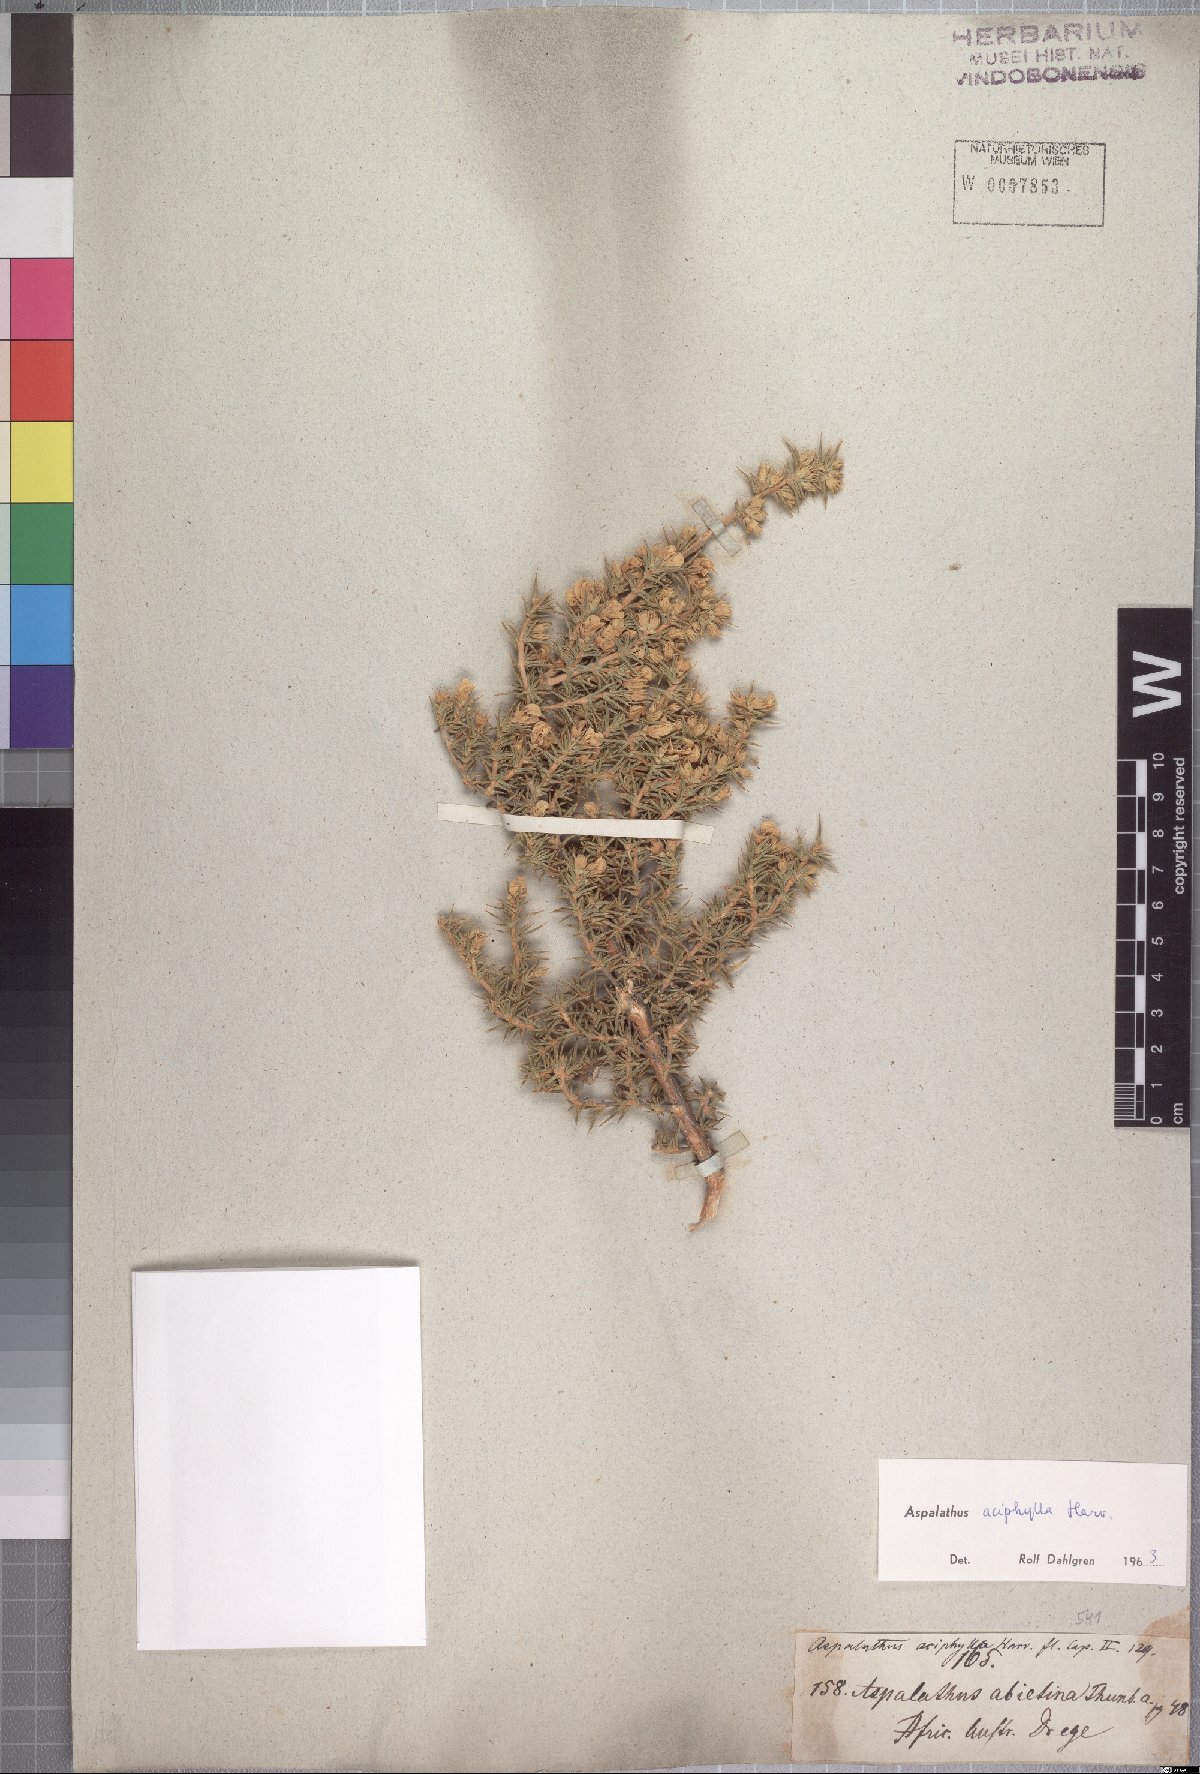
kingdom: Plantae
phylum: Tracheophyta
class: Magnoliopsida
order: Fabales
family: Fabaceae
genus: Aspalathus
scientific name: Aspalathus aciphylla
